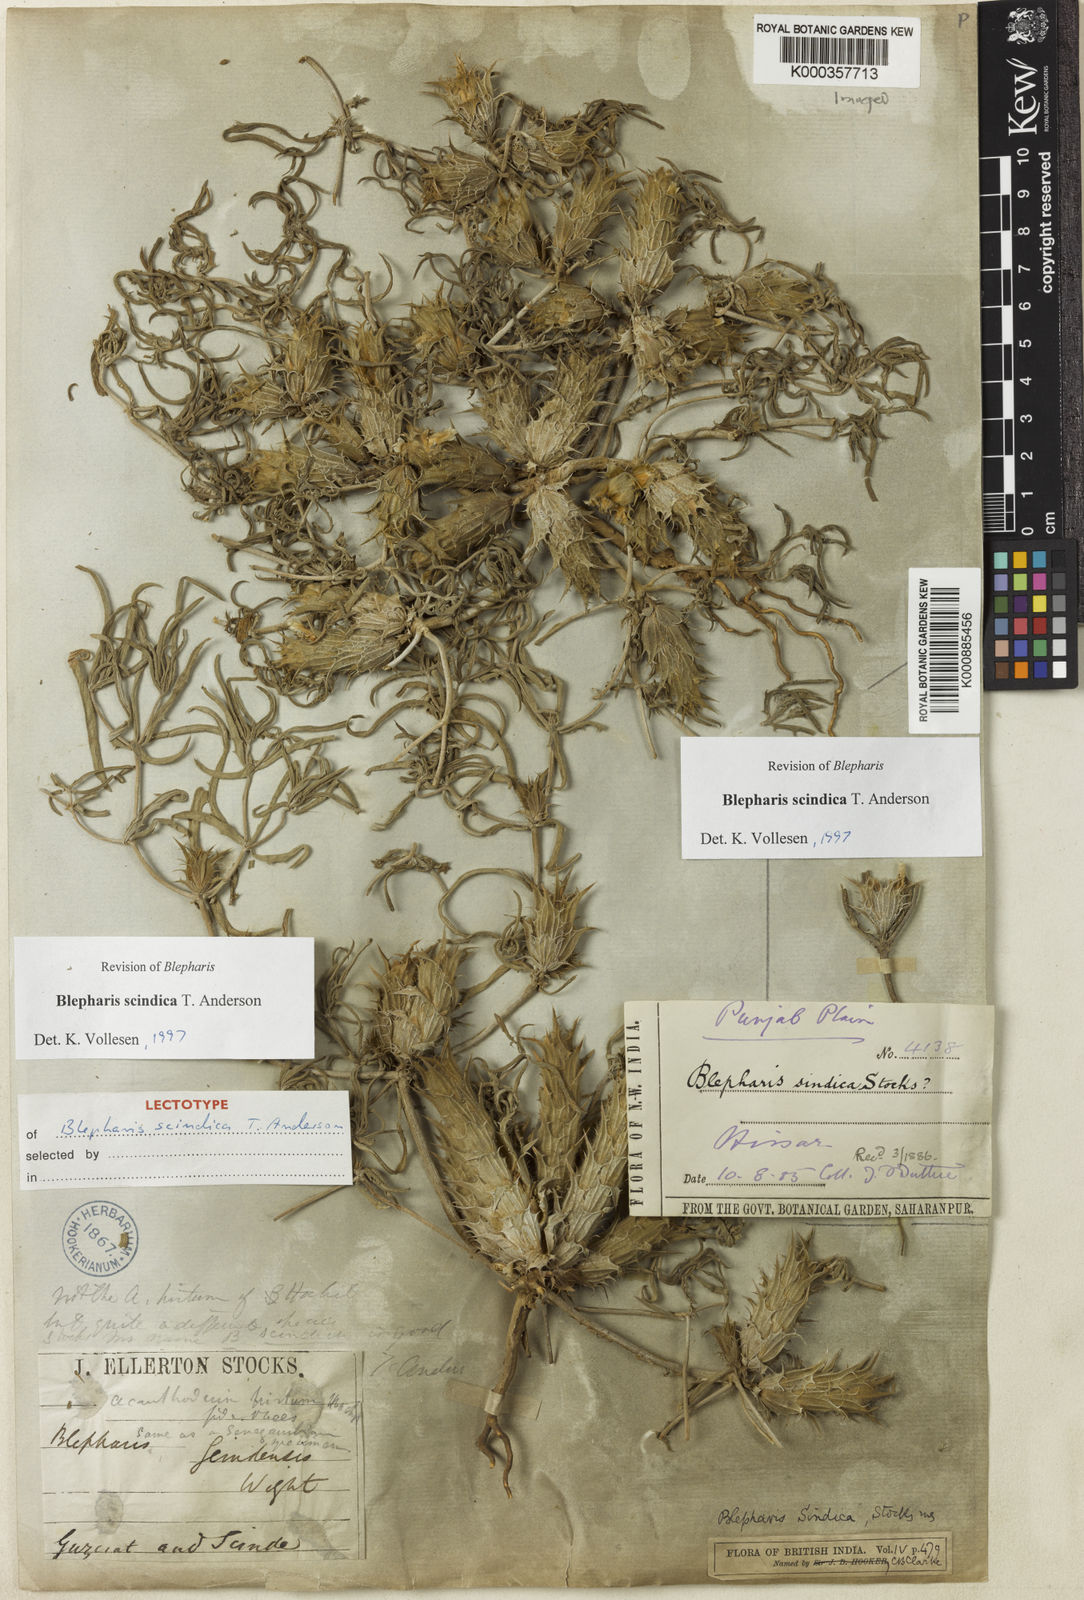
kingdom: Plantae
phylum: Tracheophyta
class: Magnoliopsida
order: Lamiales
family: Acanthaceae
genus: Blepharis
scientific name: Blepharis scindica
